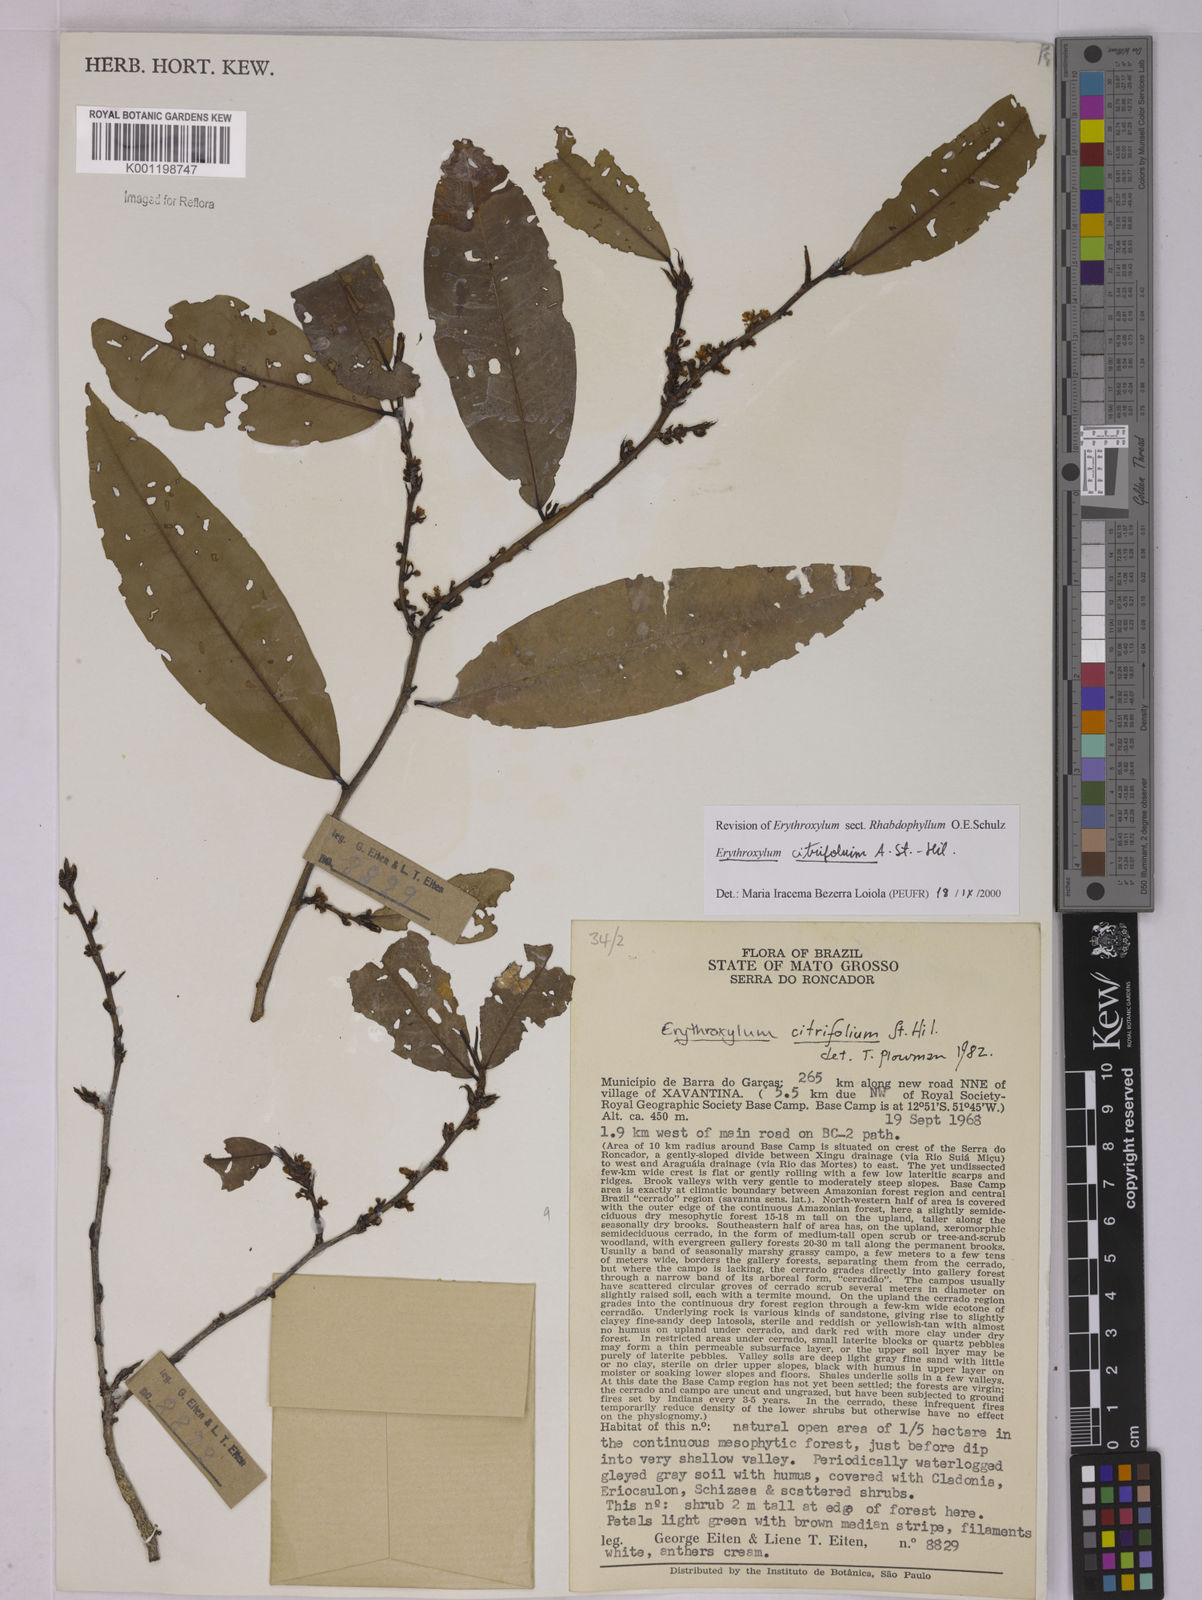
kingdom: Plantae
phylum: Tracheophyta
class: Magnoliopsida
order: Malpighiales
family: Erythroxylaceae
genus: Erythroxylum
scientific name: Erythroxylum citrifolium
